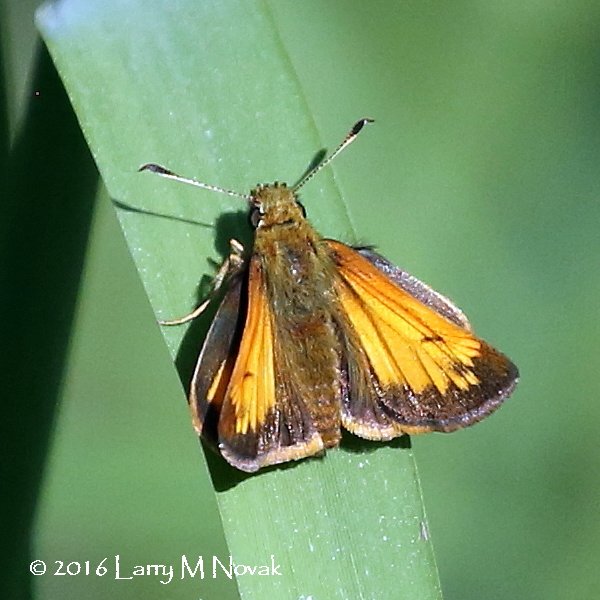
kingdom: Animalia
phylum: Arthropoda
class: Insecta
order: Lepidoptera
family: Hesperiidae
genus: Lon
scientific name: Lon hobomok
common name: Hobomok Skipper
